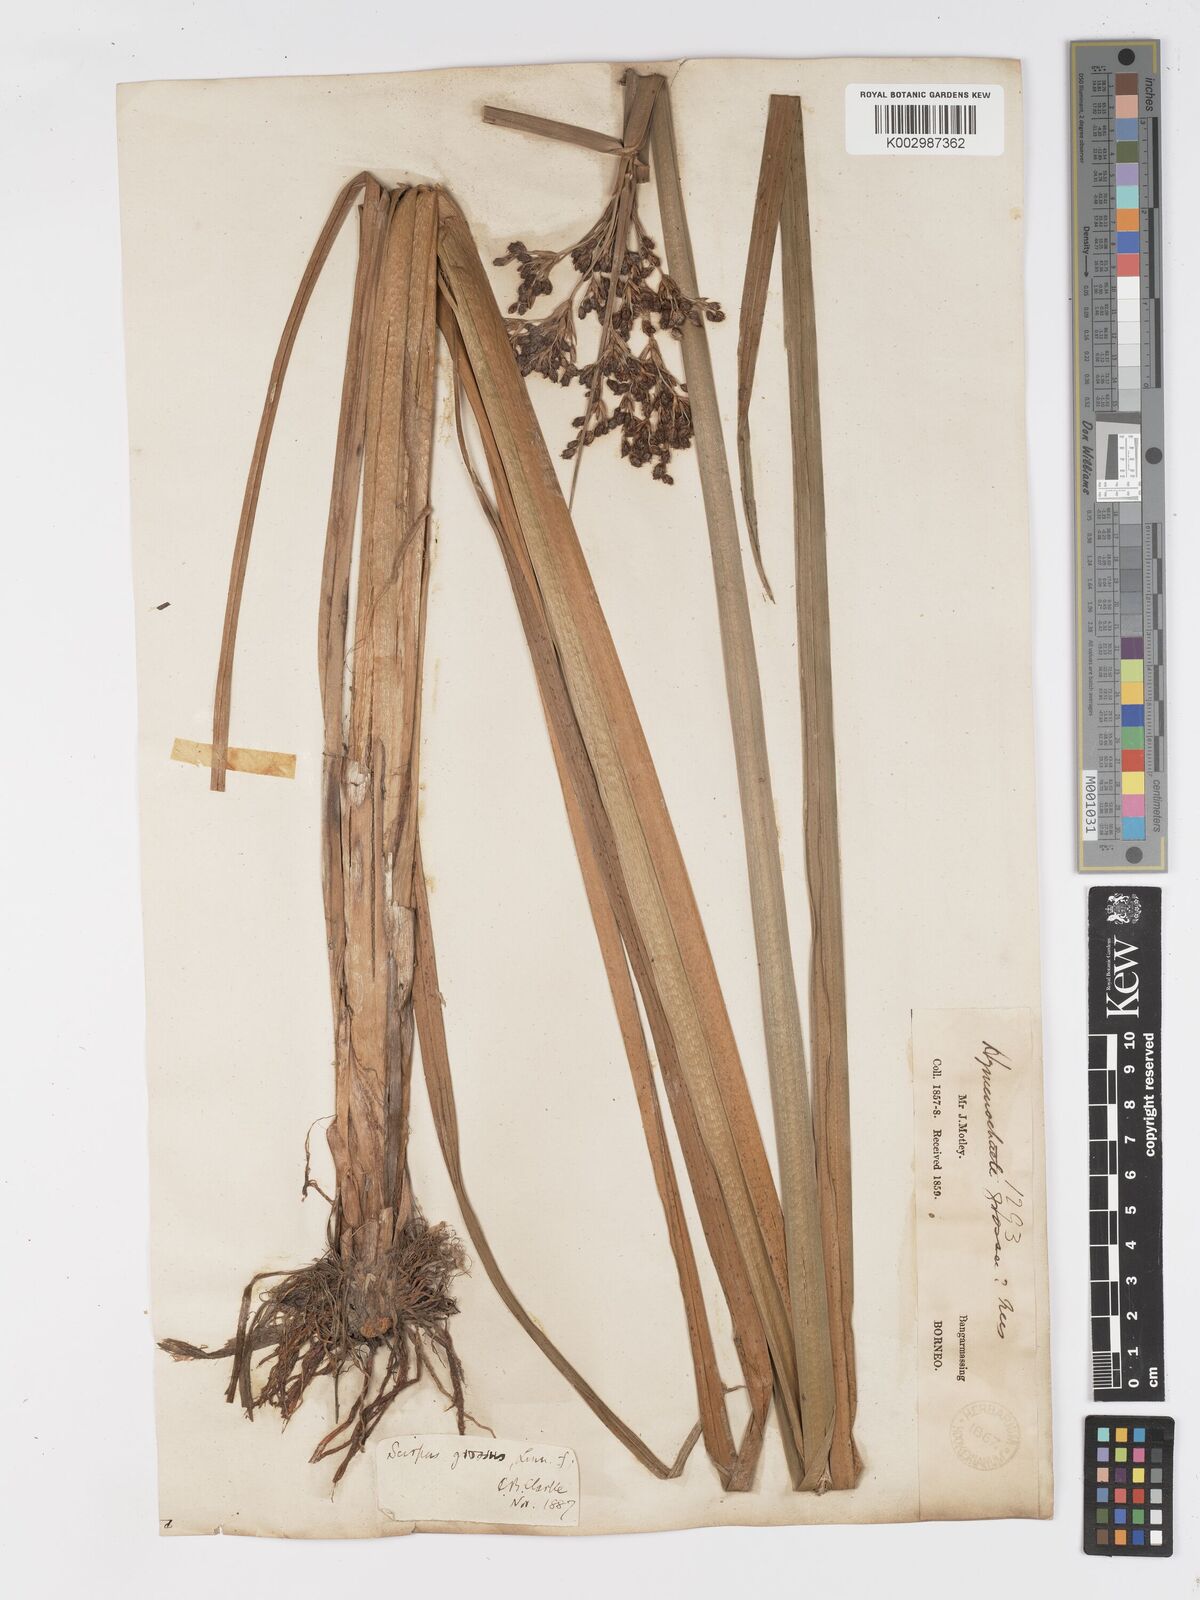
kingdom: Plantae
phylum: Tracheophyta
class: Liliopsida
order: Poales
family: Cyperaceae
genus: Actinoscirpus
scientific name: Actinoscirpus grossus
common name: Giant bur rush
